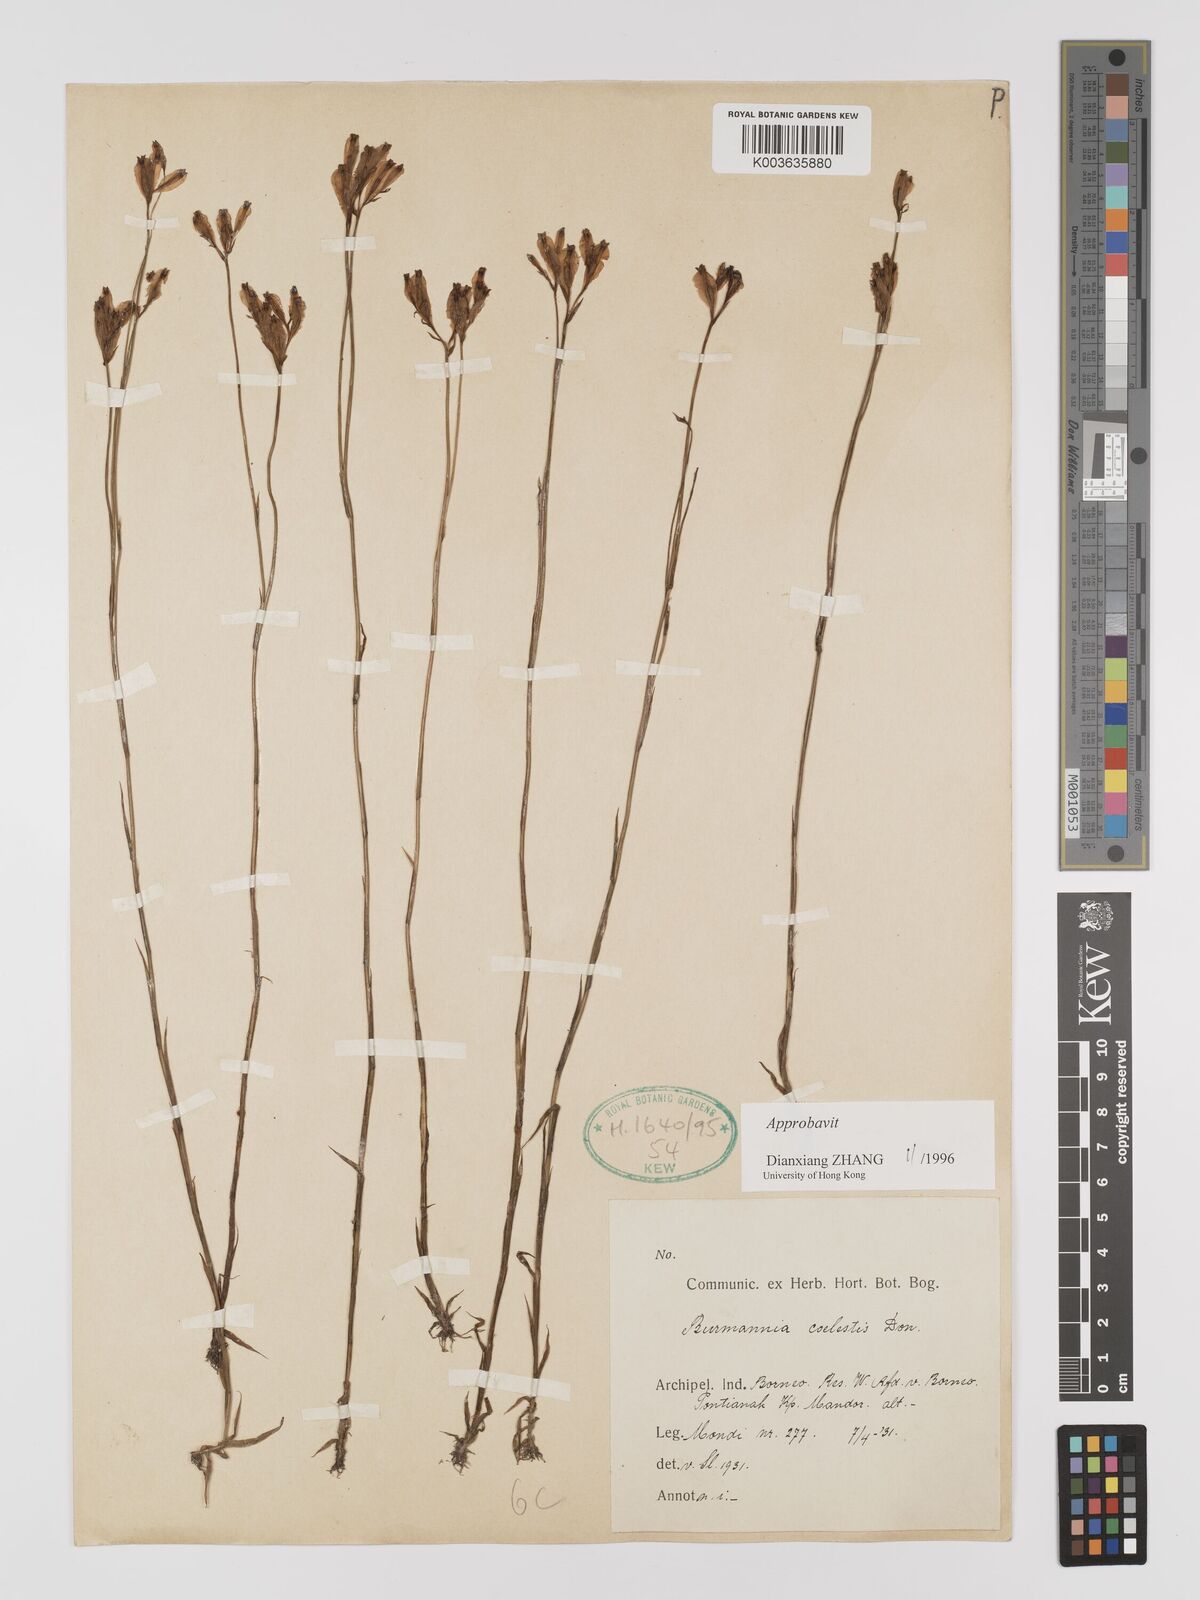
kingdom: Plantae
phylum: Tracheophyta
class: Liliopsida
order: Dioscoreales
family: Burmanniaceae
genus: Burmannia
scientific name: Burmannia coelestis
